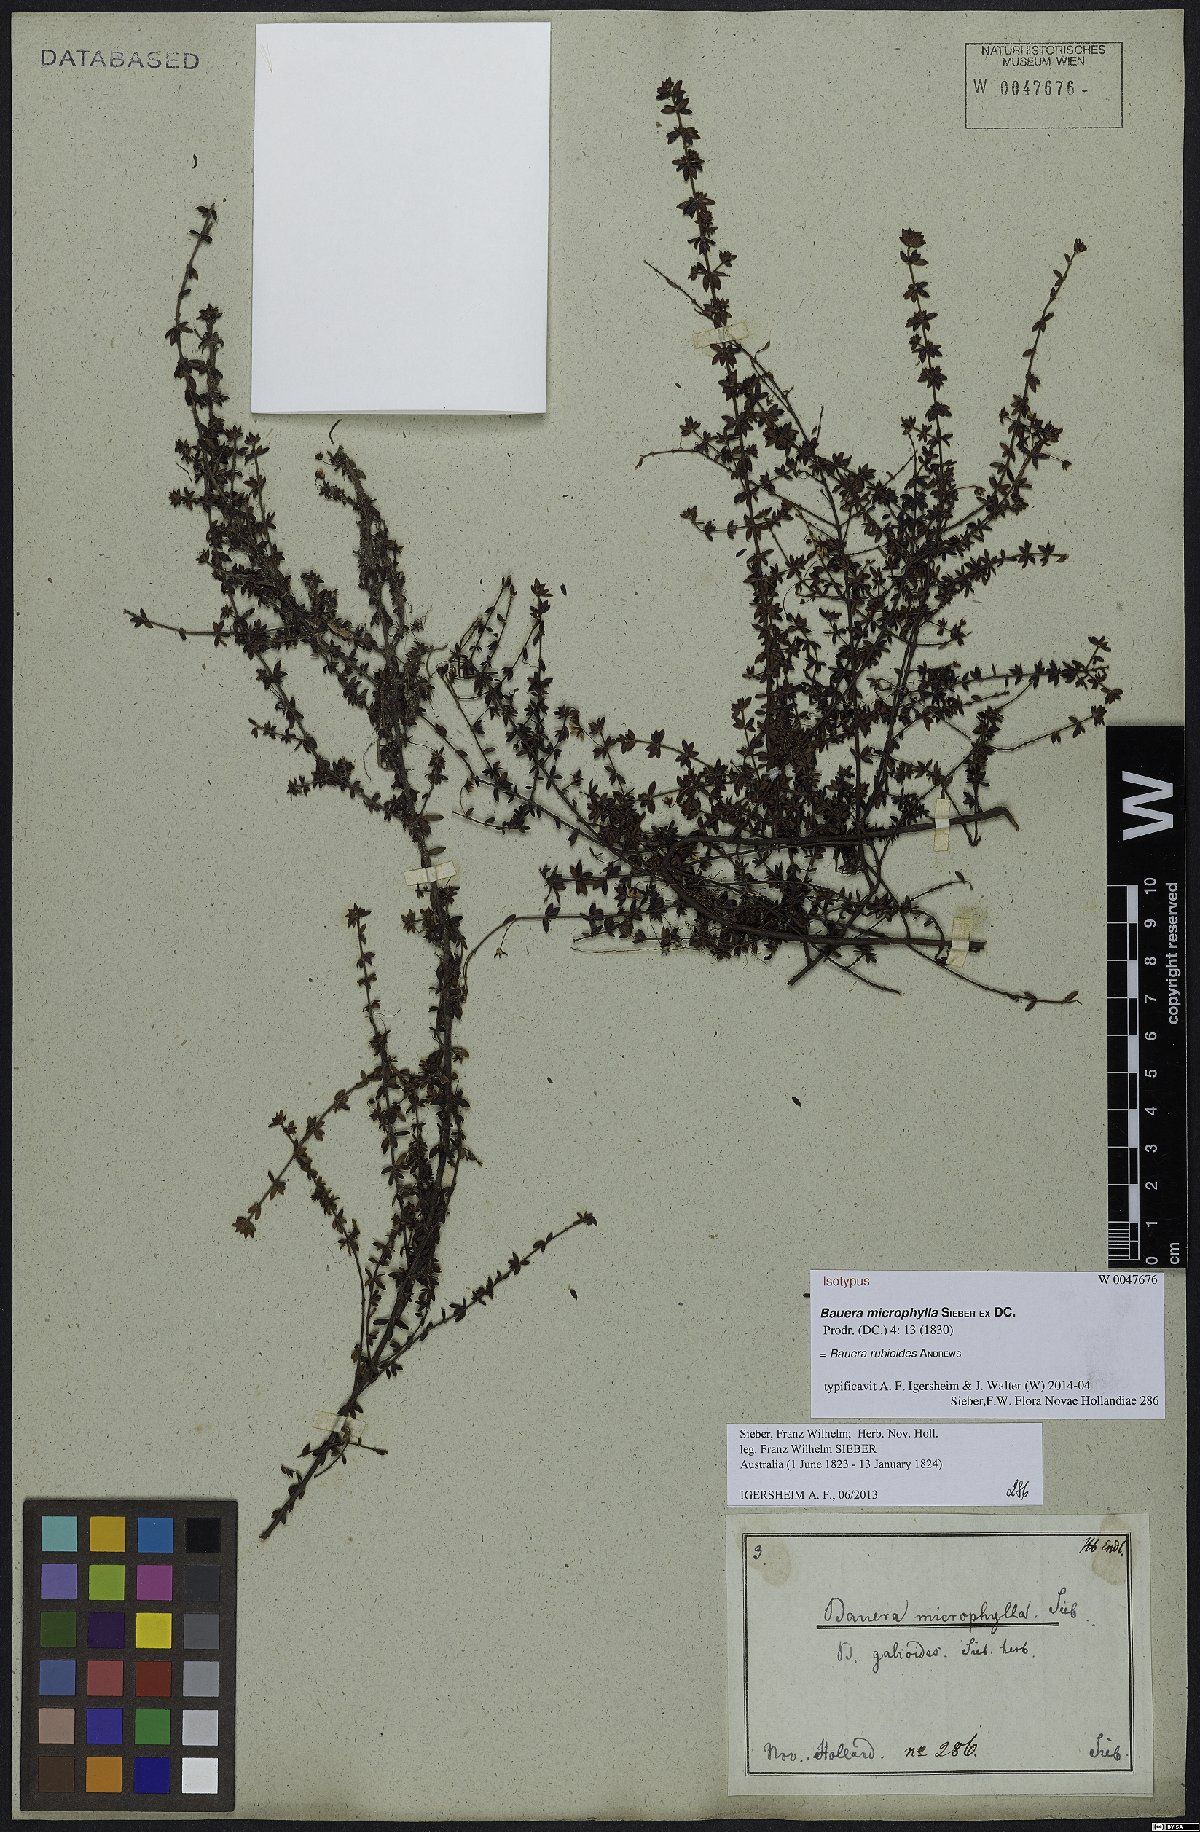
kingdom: Plantae
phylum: Tracheophyta
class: Magnoliopsida
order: Oxalidales
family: Cunoniaceae
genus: Bauera
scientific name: Bauera rubioides
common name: River-rose
